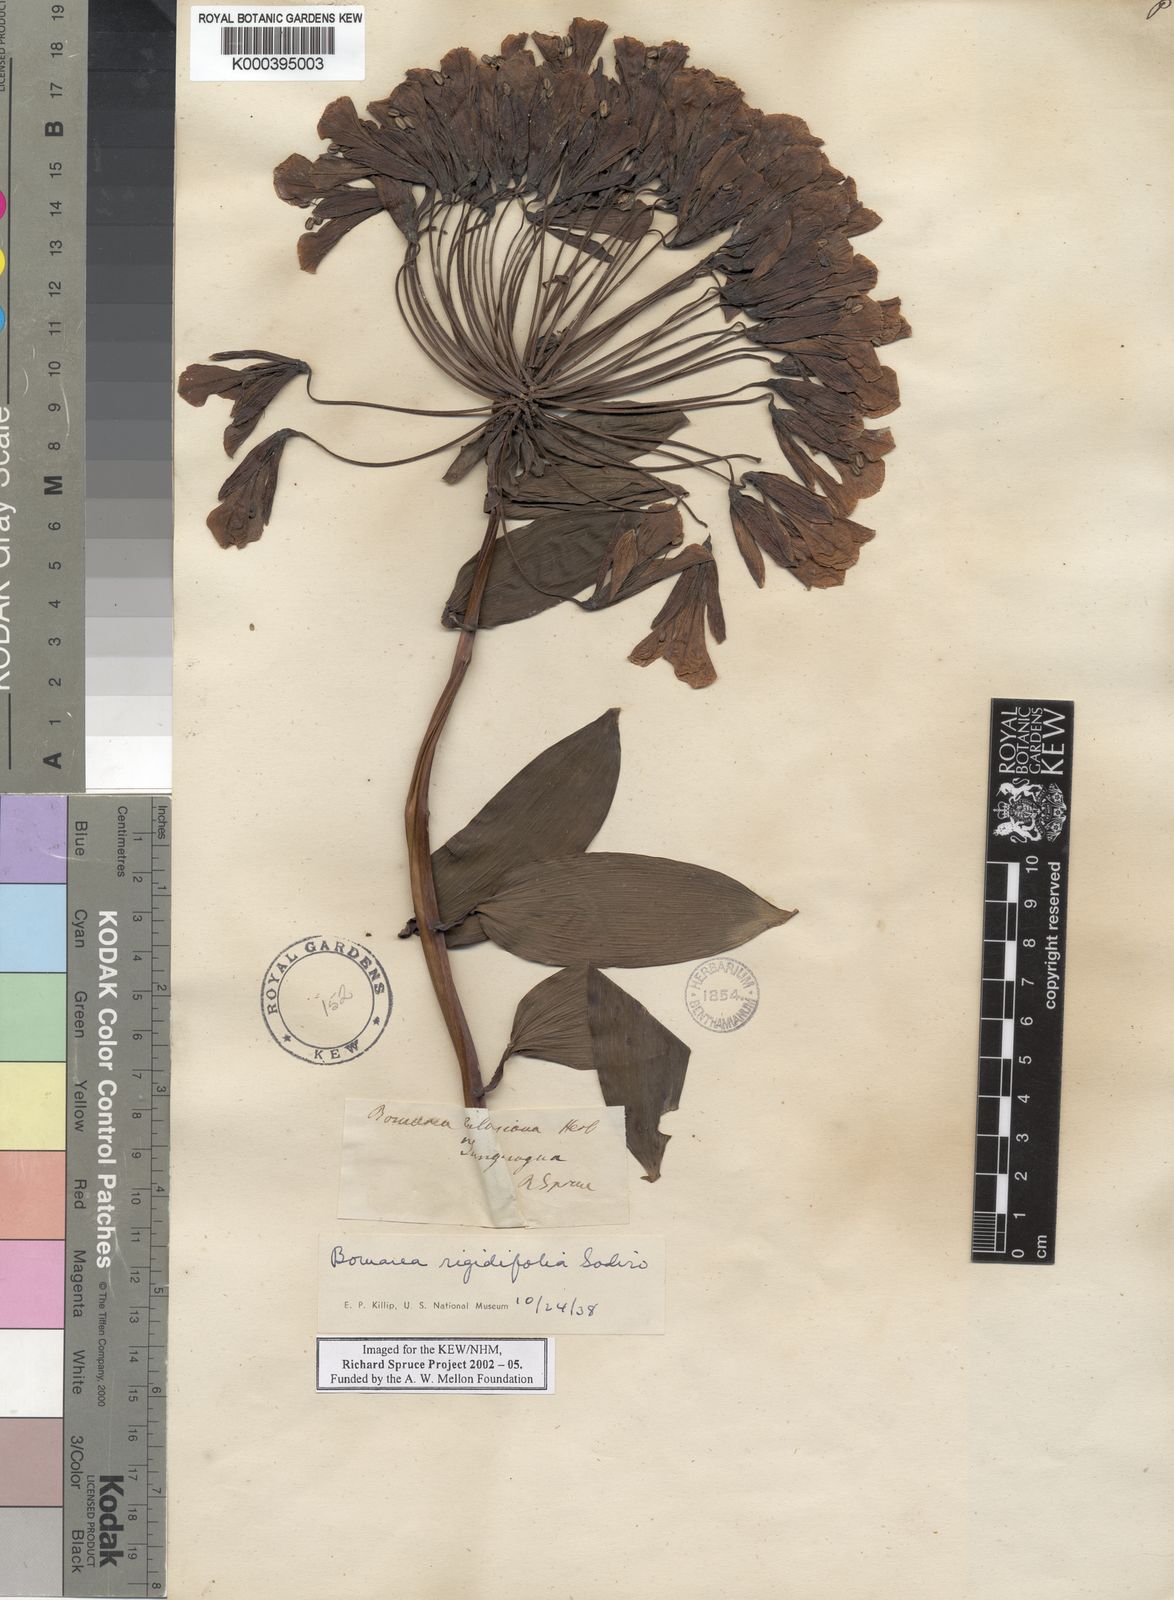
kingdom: Plantae
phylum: Tracheophyta
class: Liliopsida
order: Liliales
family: Alstroemeriaceae
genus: Bomarea
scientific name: Bomarea multiflora
